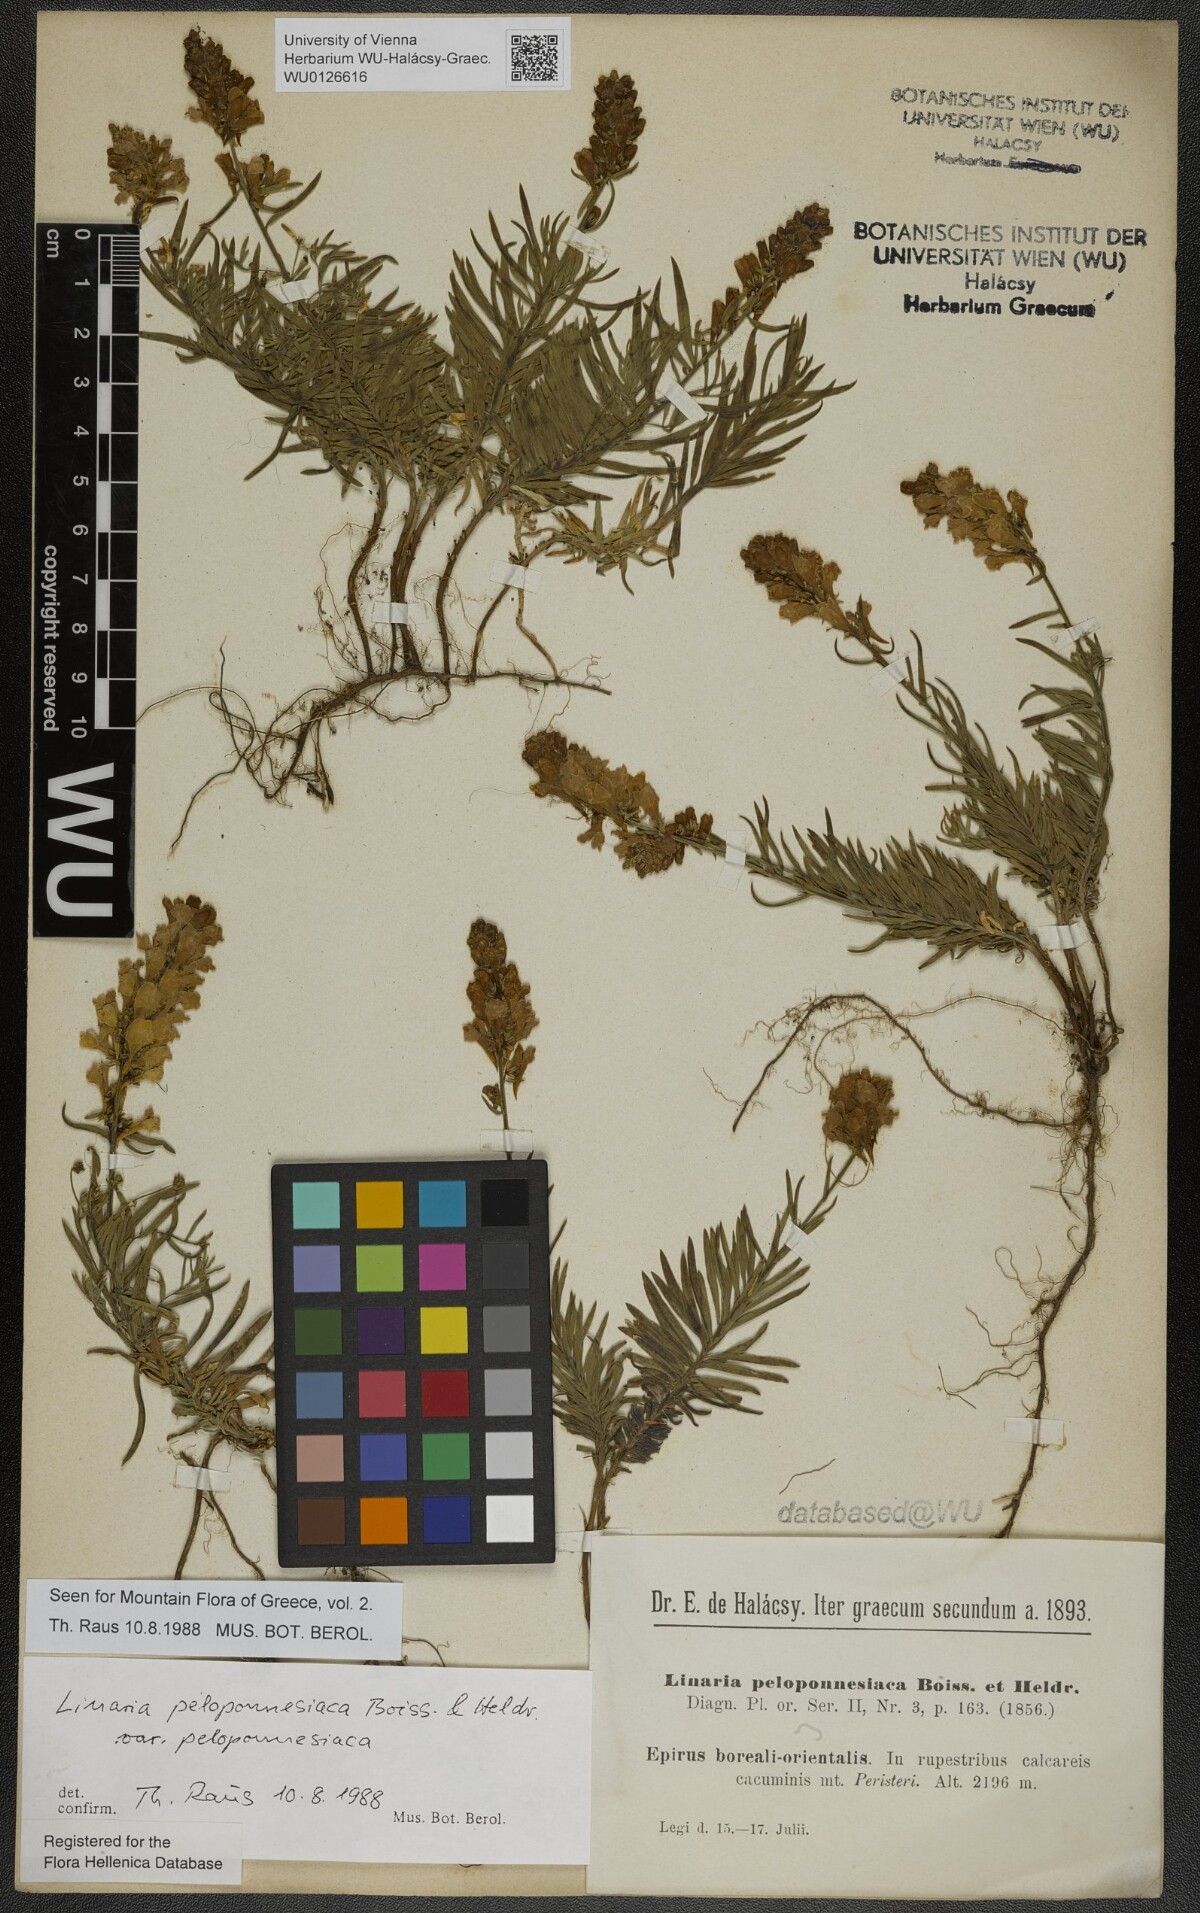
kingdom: Plantae
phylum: Tracheophyta
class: Magnoliopsida
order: Lamiales
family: Plantaginaceae
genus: Linaria
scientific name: Linaria peloponnesiaca
